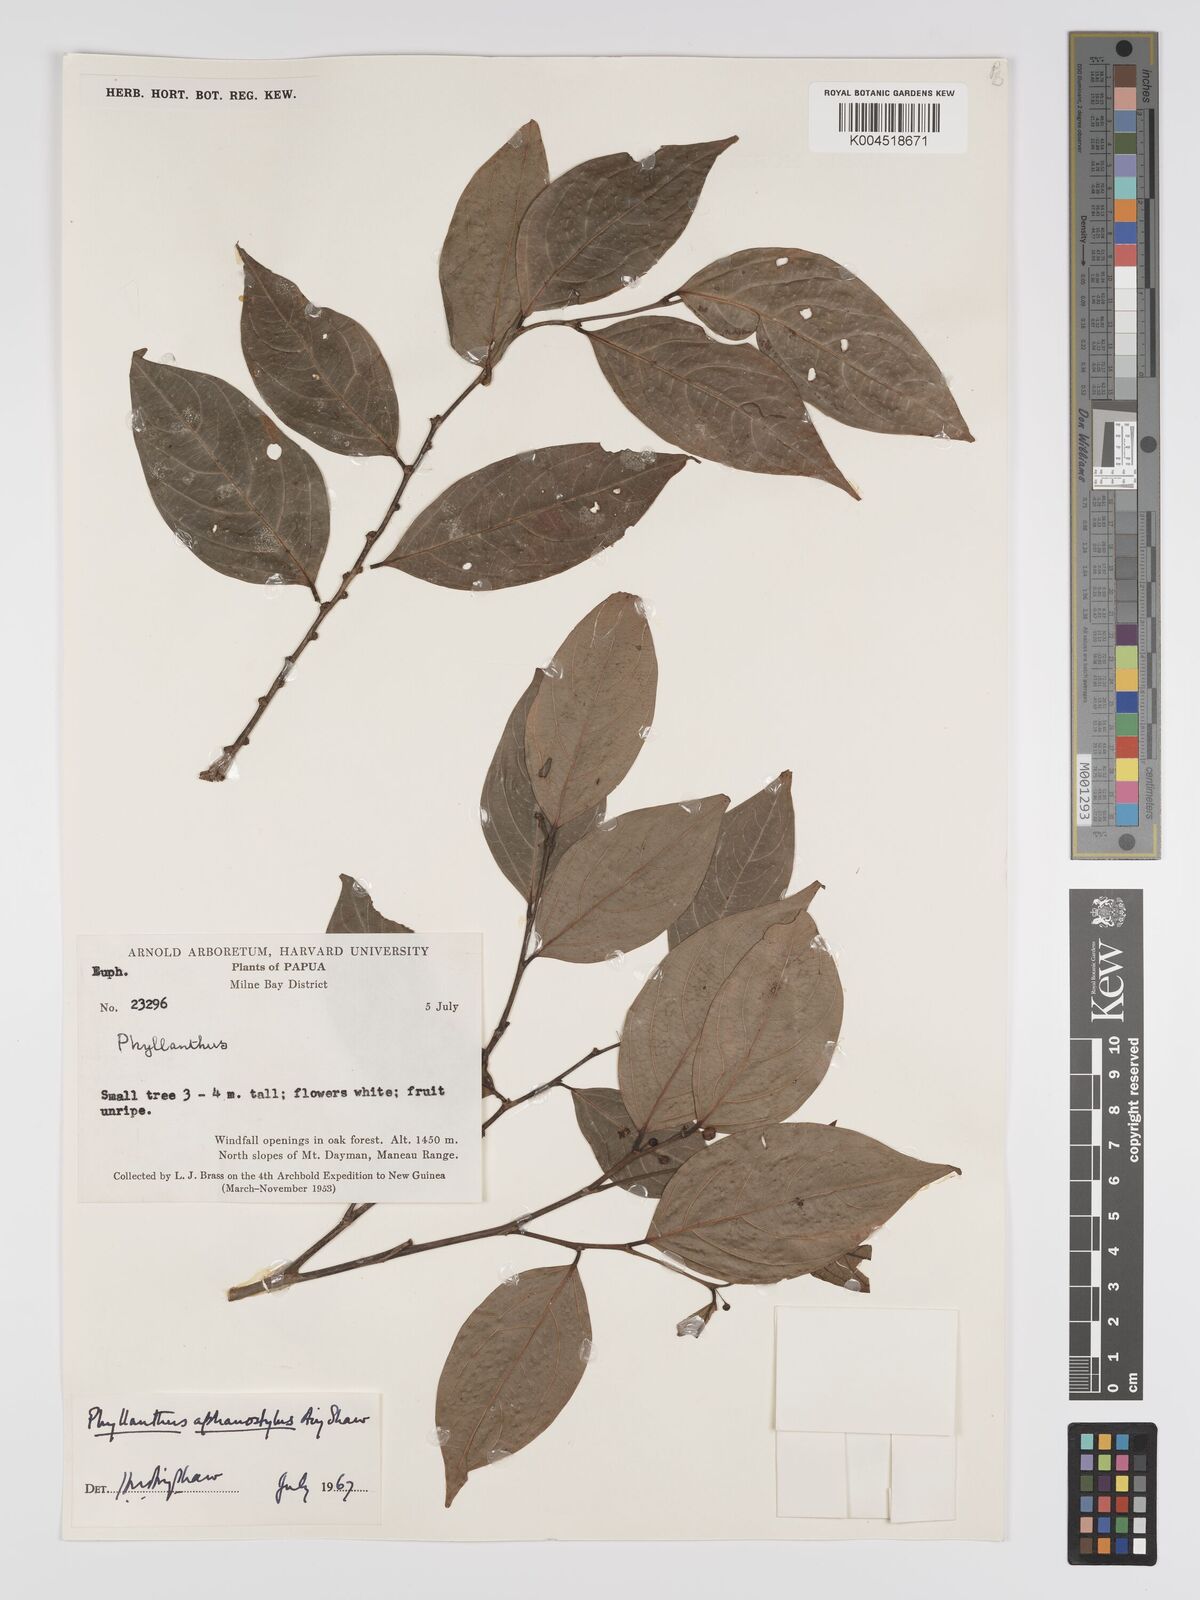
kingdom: Plantae
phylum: Tracheophyta
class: Magnoliopsida
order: Malpighiales
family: Phyllanthaceae
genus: Phyllanthus
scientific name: Phyllanthus aphanostylus
